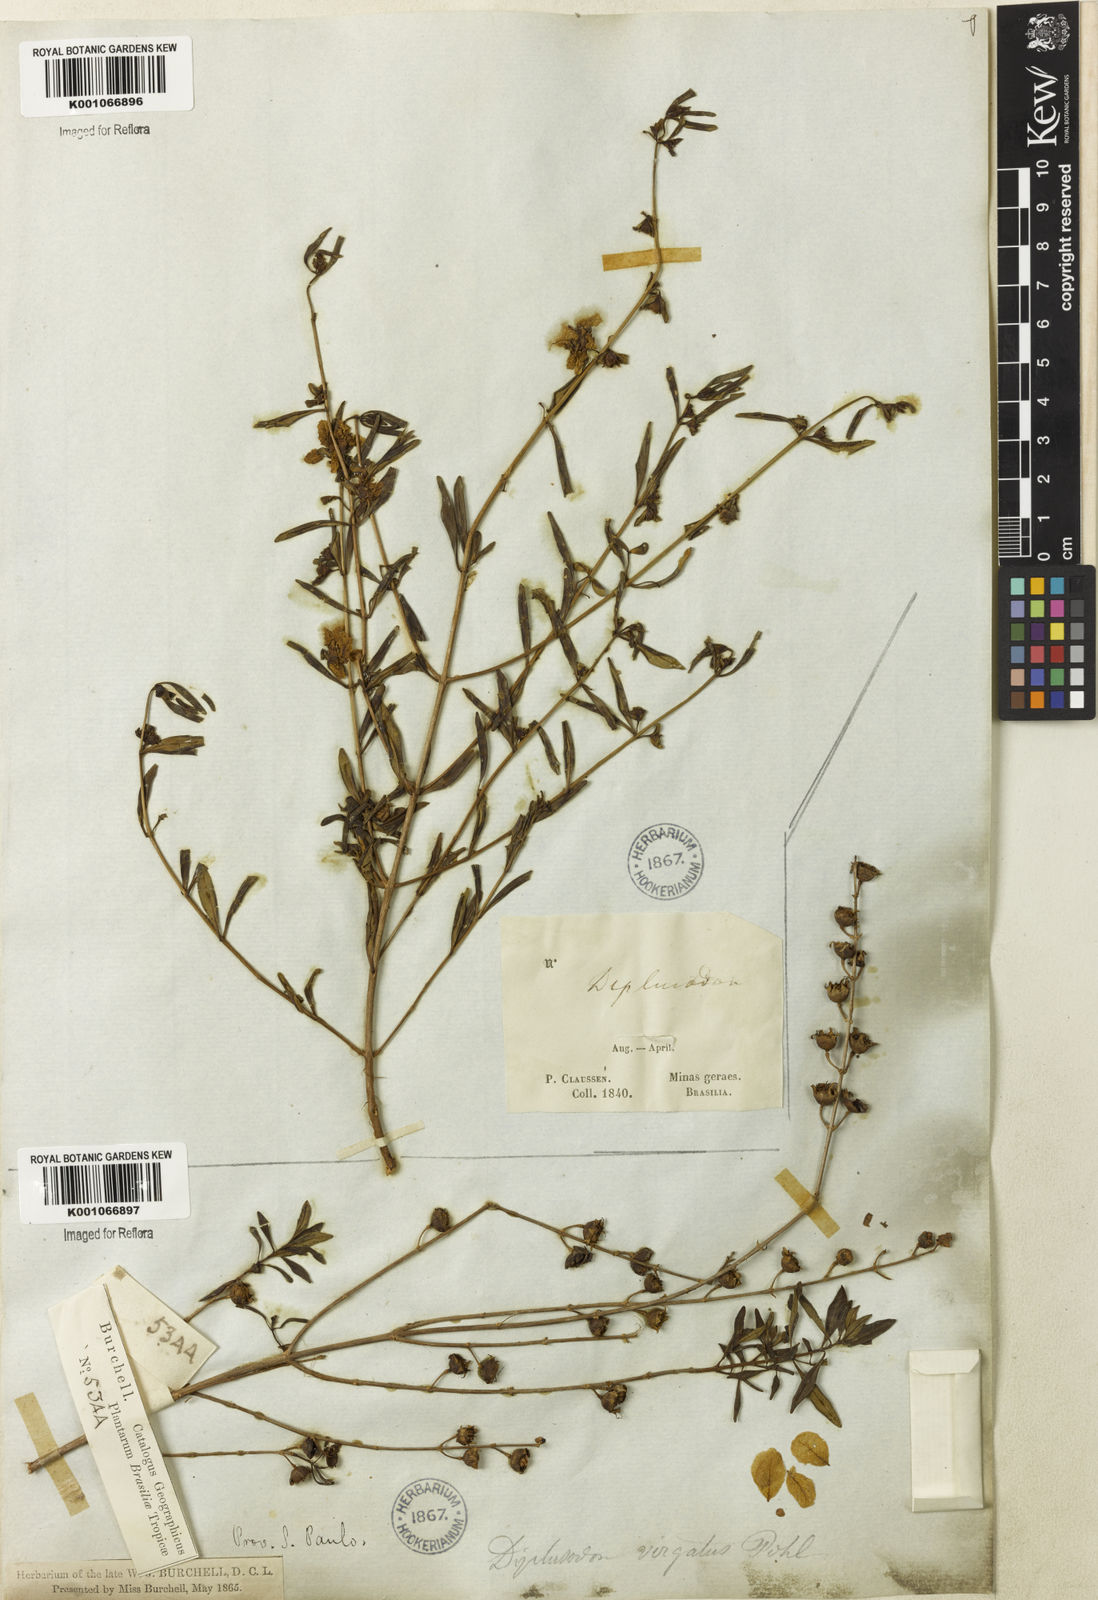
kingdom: Plantae
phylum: Tracheophyta
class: Magnoliopsida
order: Myrtales
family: Lythraceae
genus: Diplusodon
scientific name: Diplusodon virgatus
